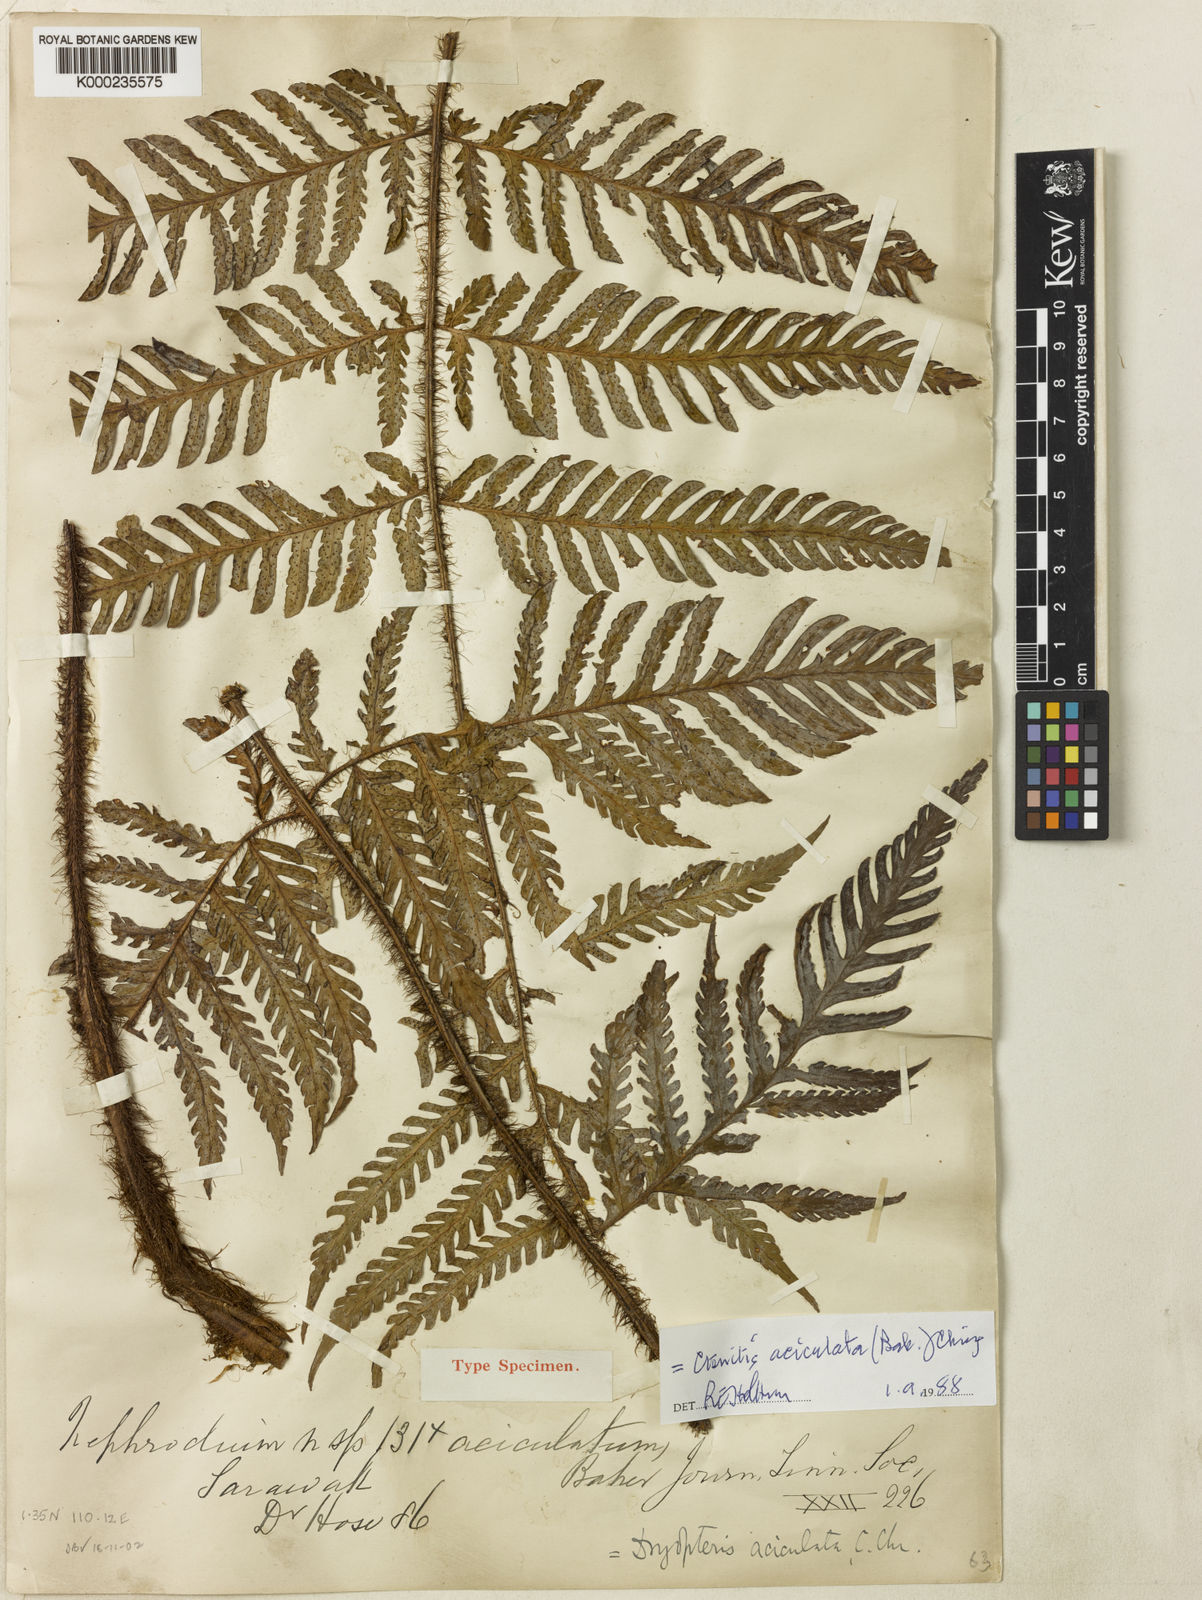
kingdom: Plantae
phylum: Tracheophyta
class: Polypodiopsida
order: Polypodiales
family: Dryopteridaceae
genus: Ctenitis
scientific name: Ctenitis aciculata
